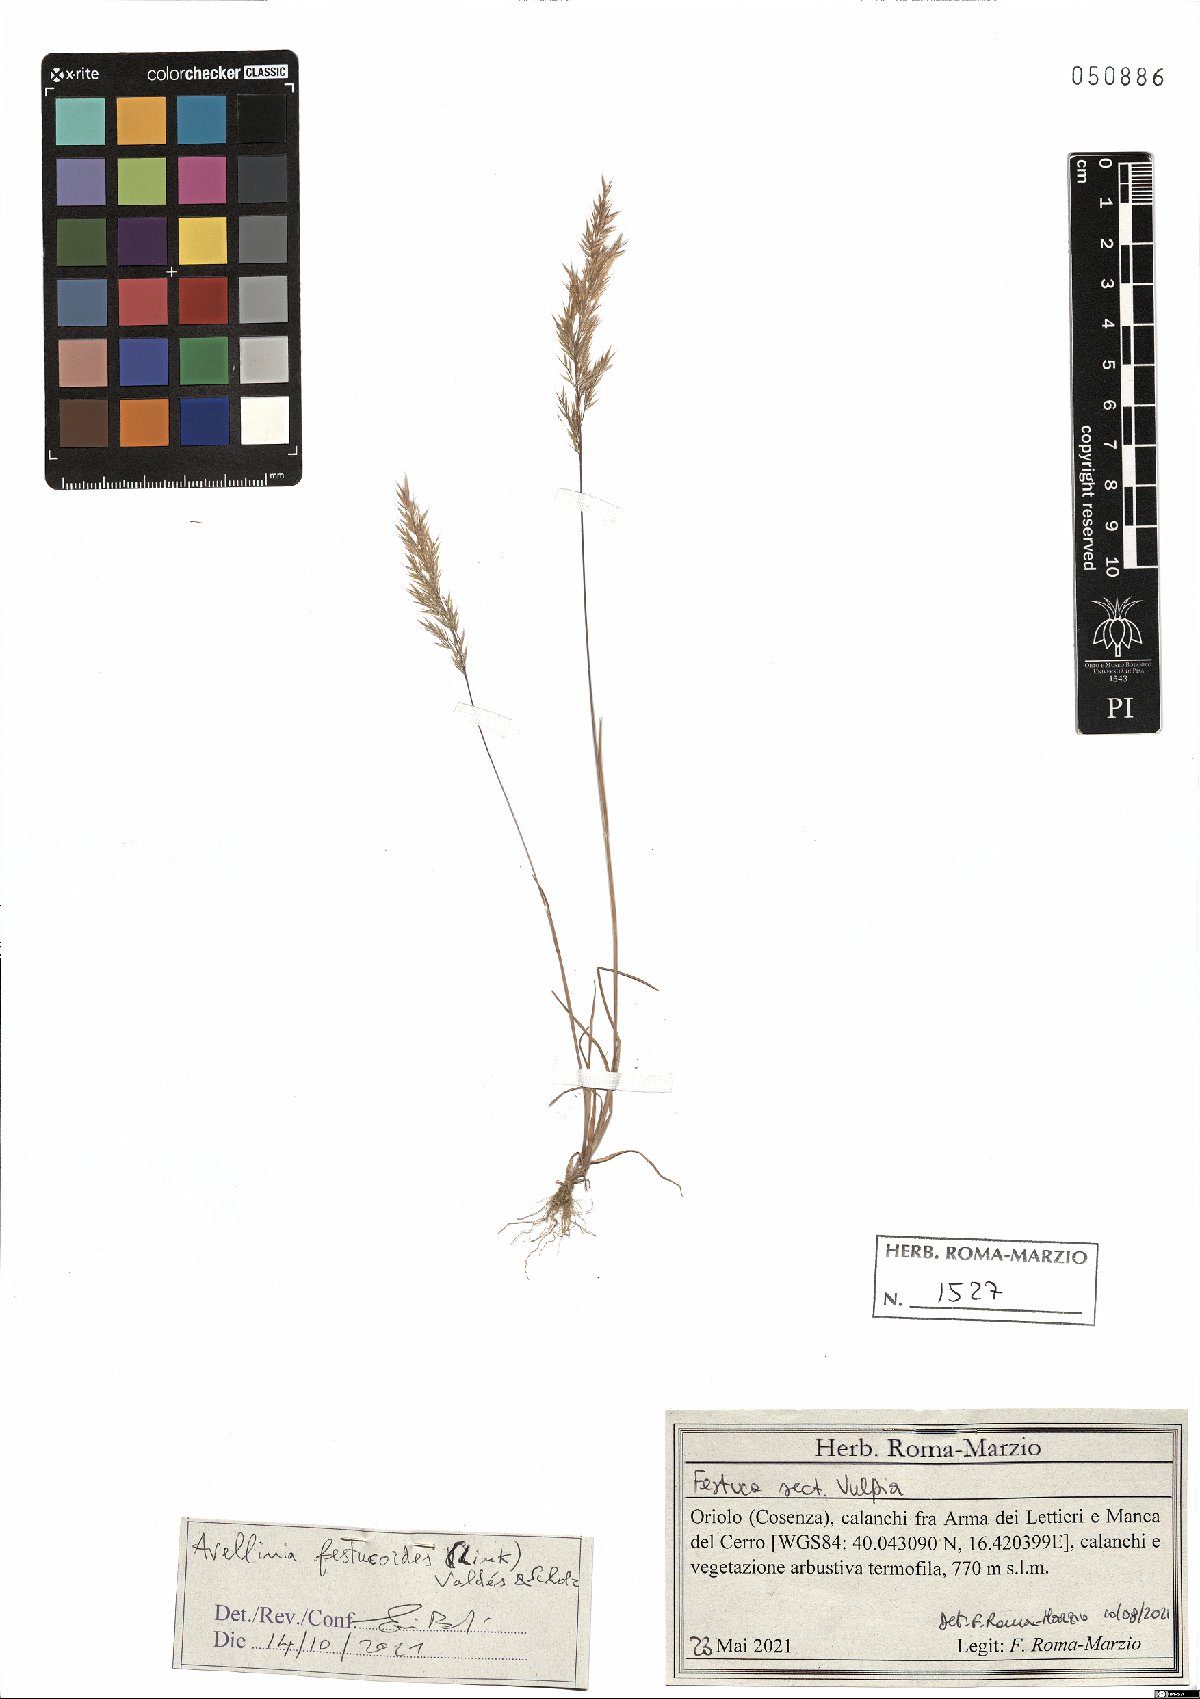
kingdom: Plantae
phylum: Tracheophyta
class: Liliopsida
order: Poales
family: Poaceae
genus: Avellinia
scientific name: Avellinia festucoides
